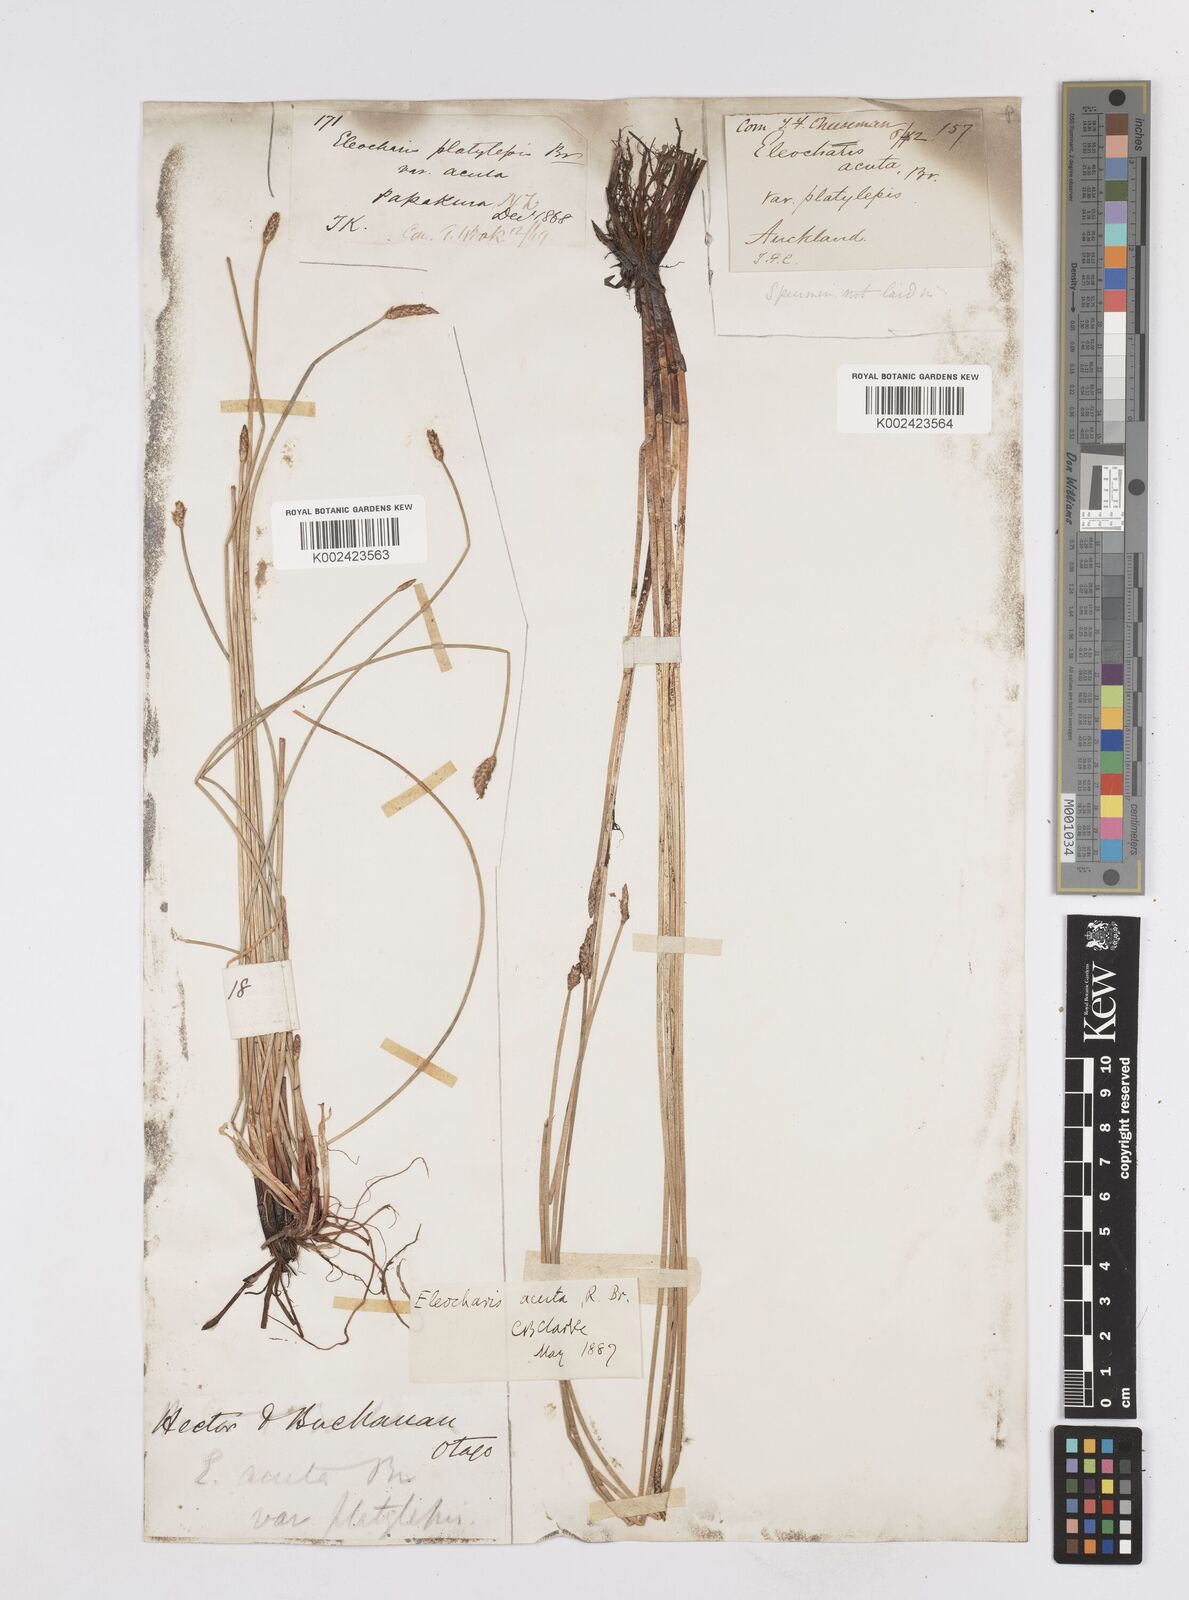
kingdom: Plantae
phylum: Tracheophyta
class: Liliopsida
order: Poales
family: Cyperaceae
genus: Eleocharis
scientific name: Eleocharis acuta
